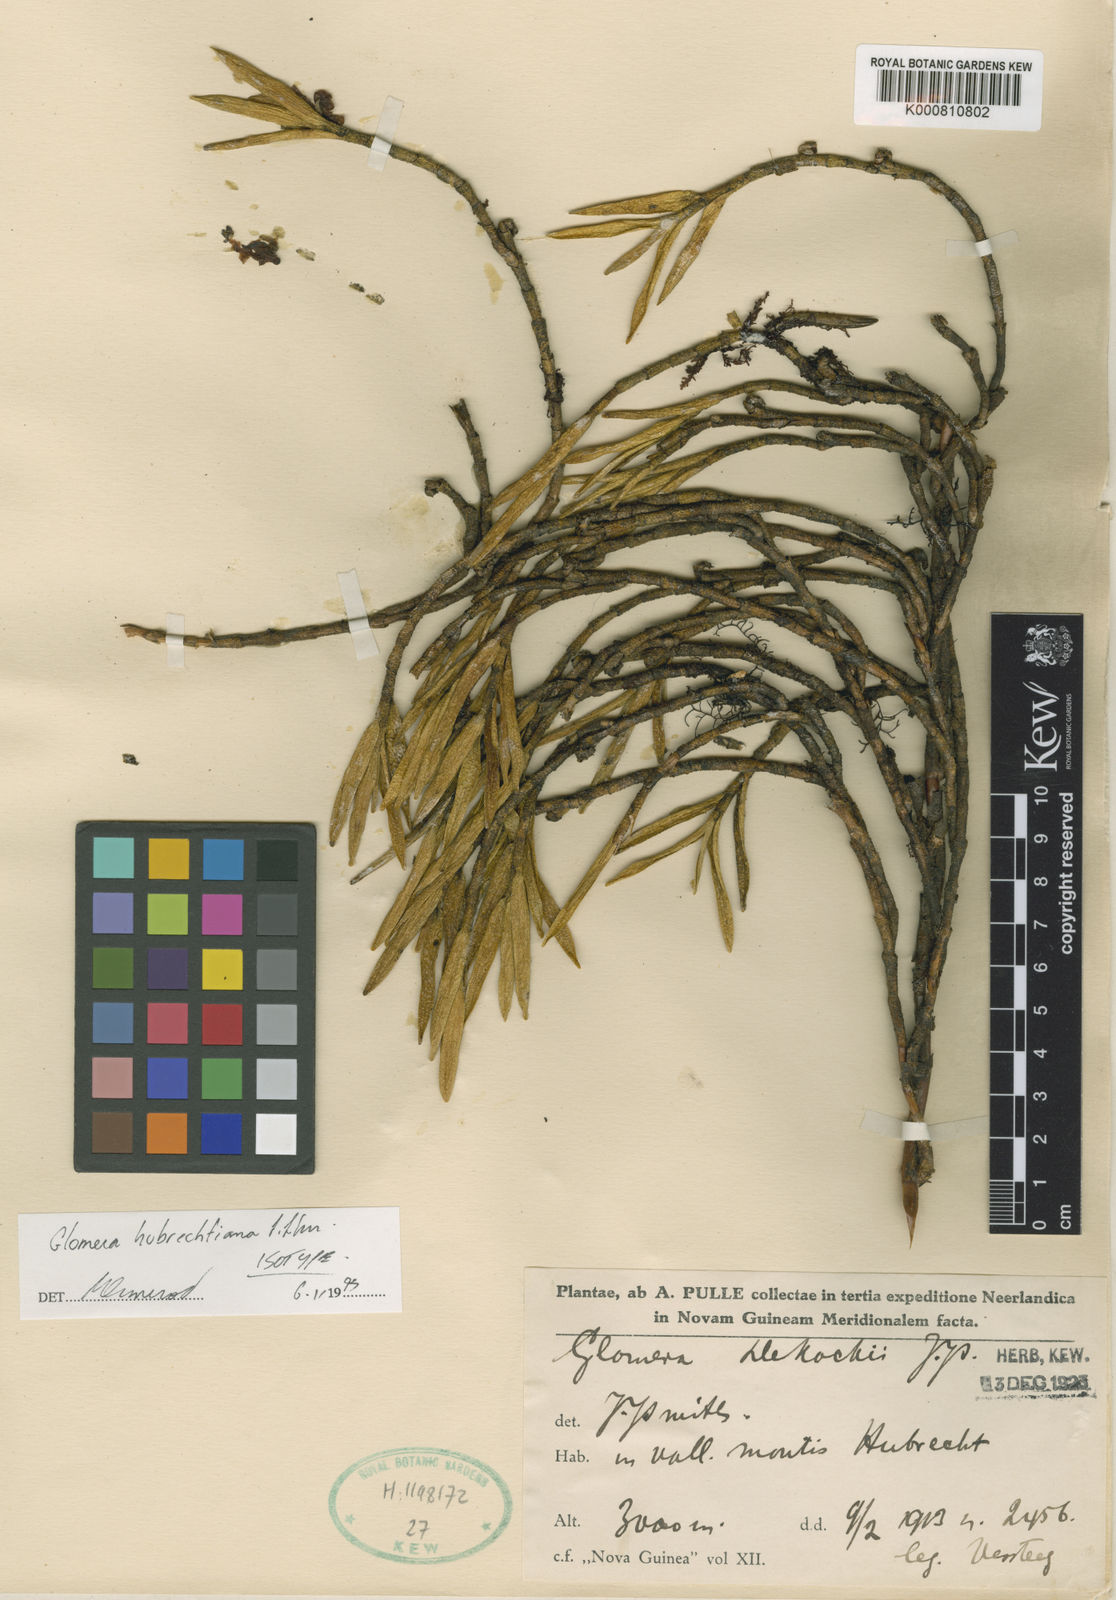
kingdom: Plantae
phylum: Tracheophyta
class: Liliopsida
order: Asparagales
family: Orchidaceae
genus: Glomera
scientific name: Glomera hubrechtiana
